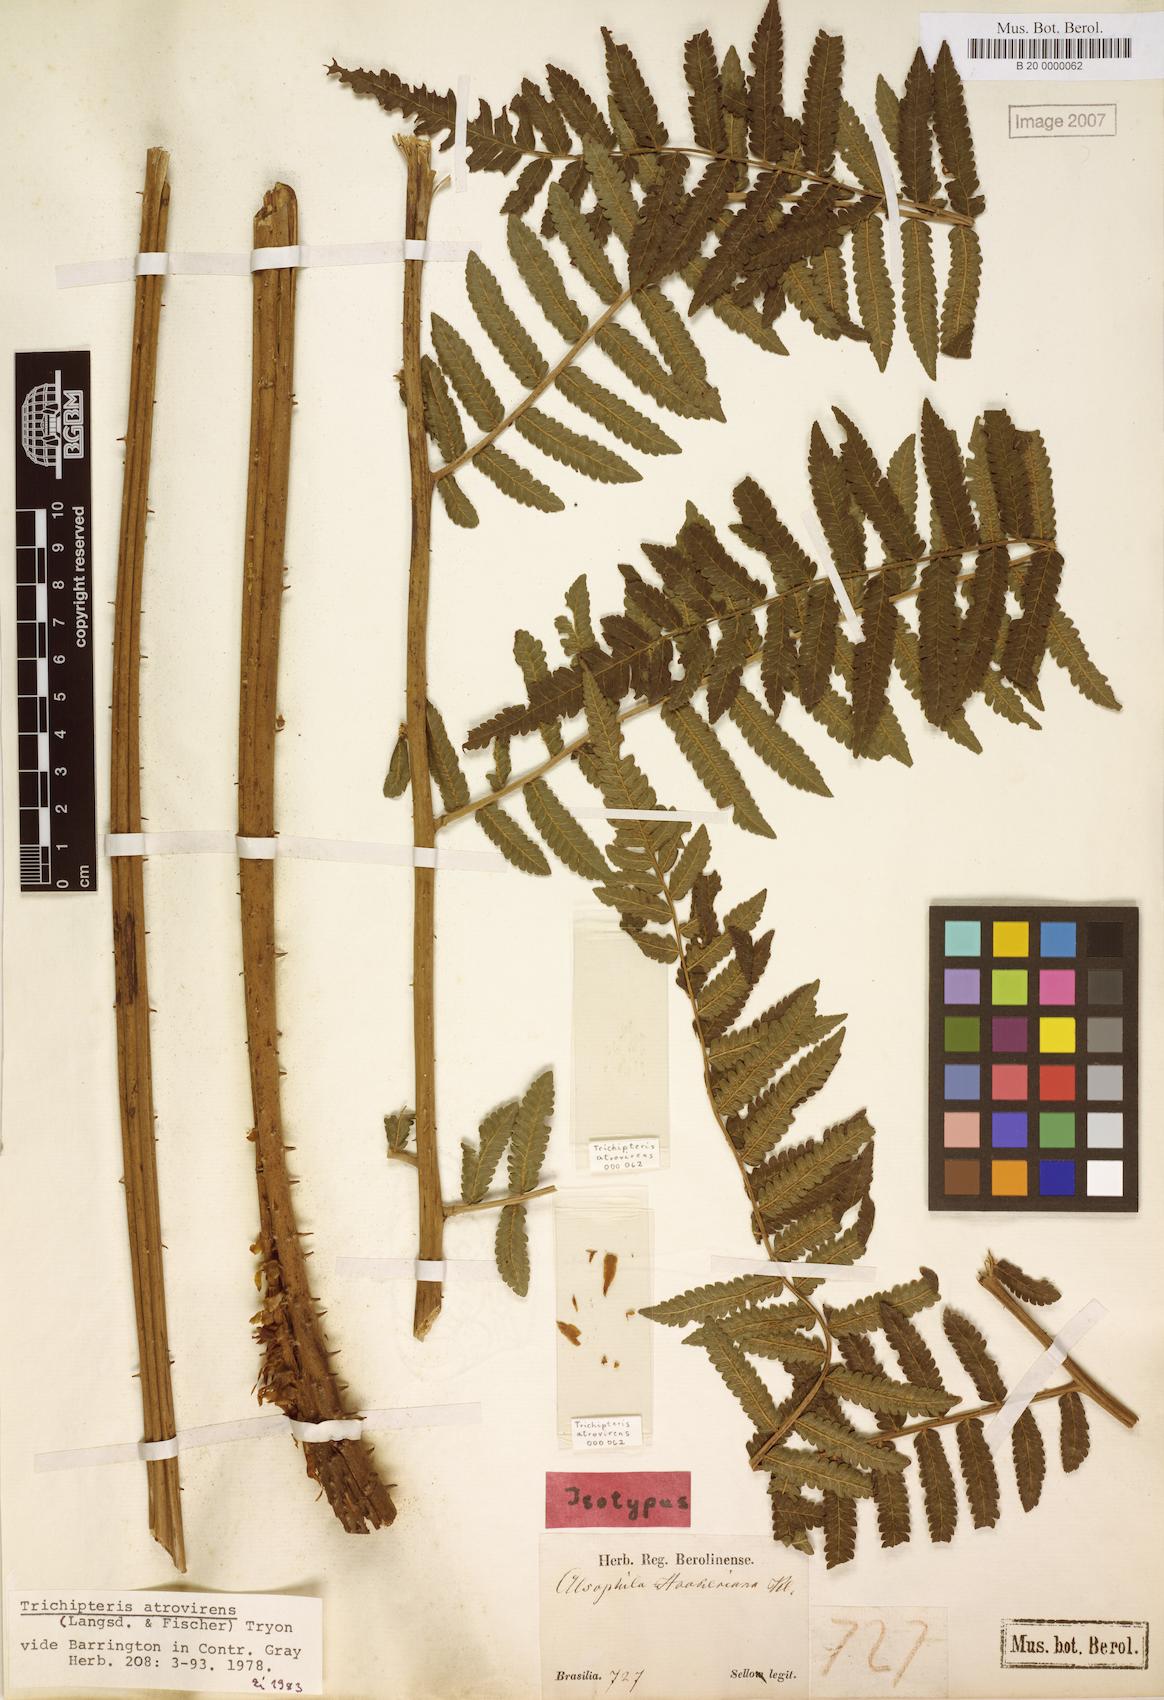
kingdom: Plantae
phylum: Tracheophyta
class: Polypodiopsida
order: Cyatheales
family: Cyatheaceae
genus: Cyathea
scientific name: Cyathea atrovirens
